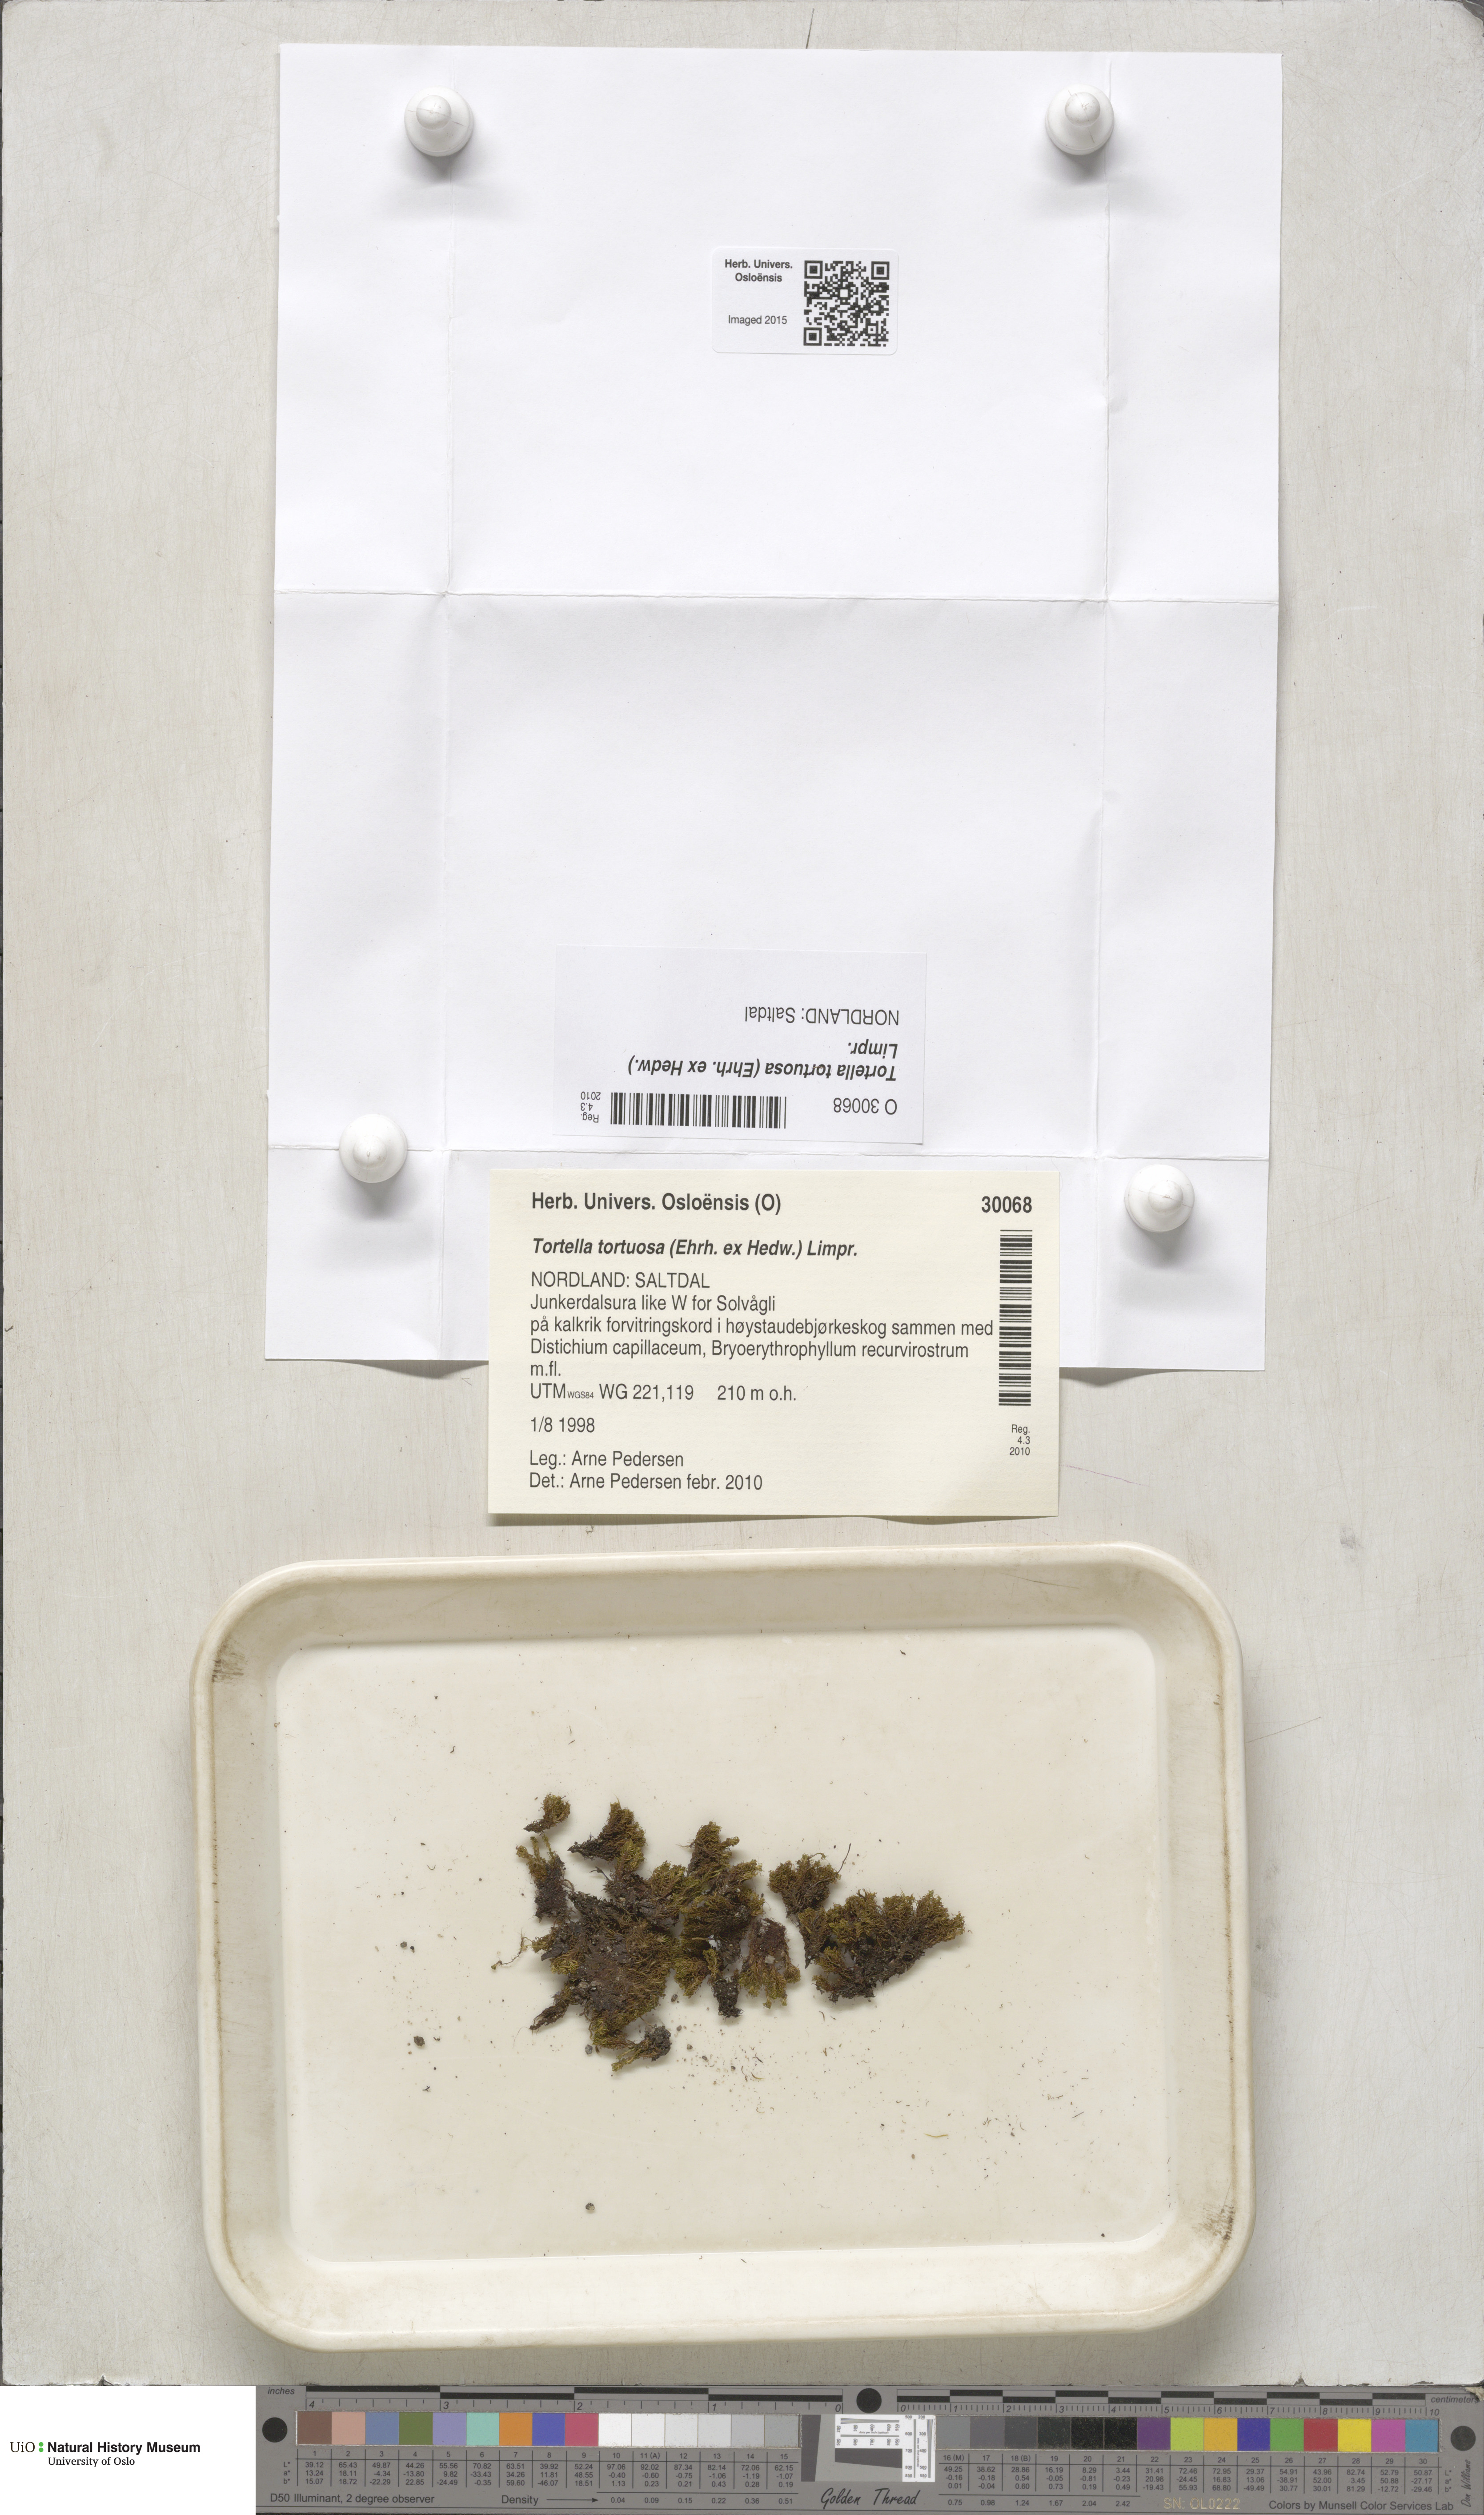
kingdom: Plantae
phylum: Bryophyta
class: Bryopsida
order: Pottiales
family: Pottiaceae
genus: Tortella
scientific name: Tortella tortuosa
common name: Frizzled crisp moss
